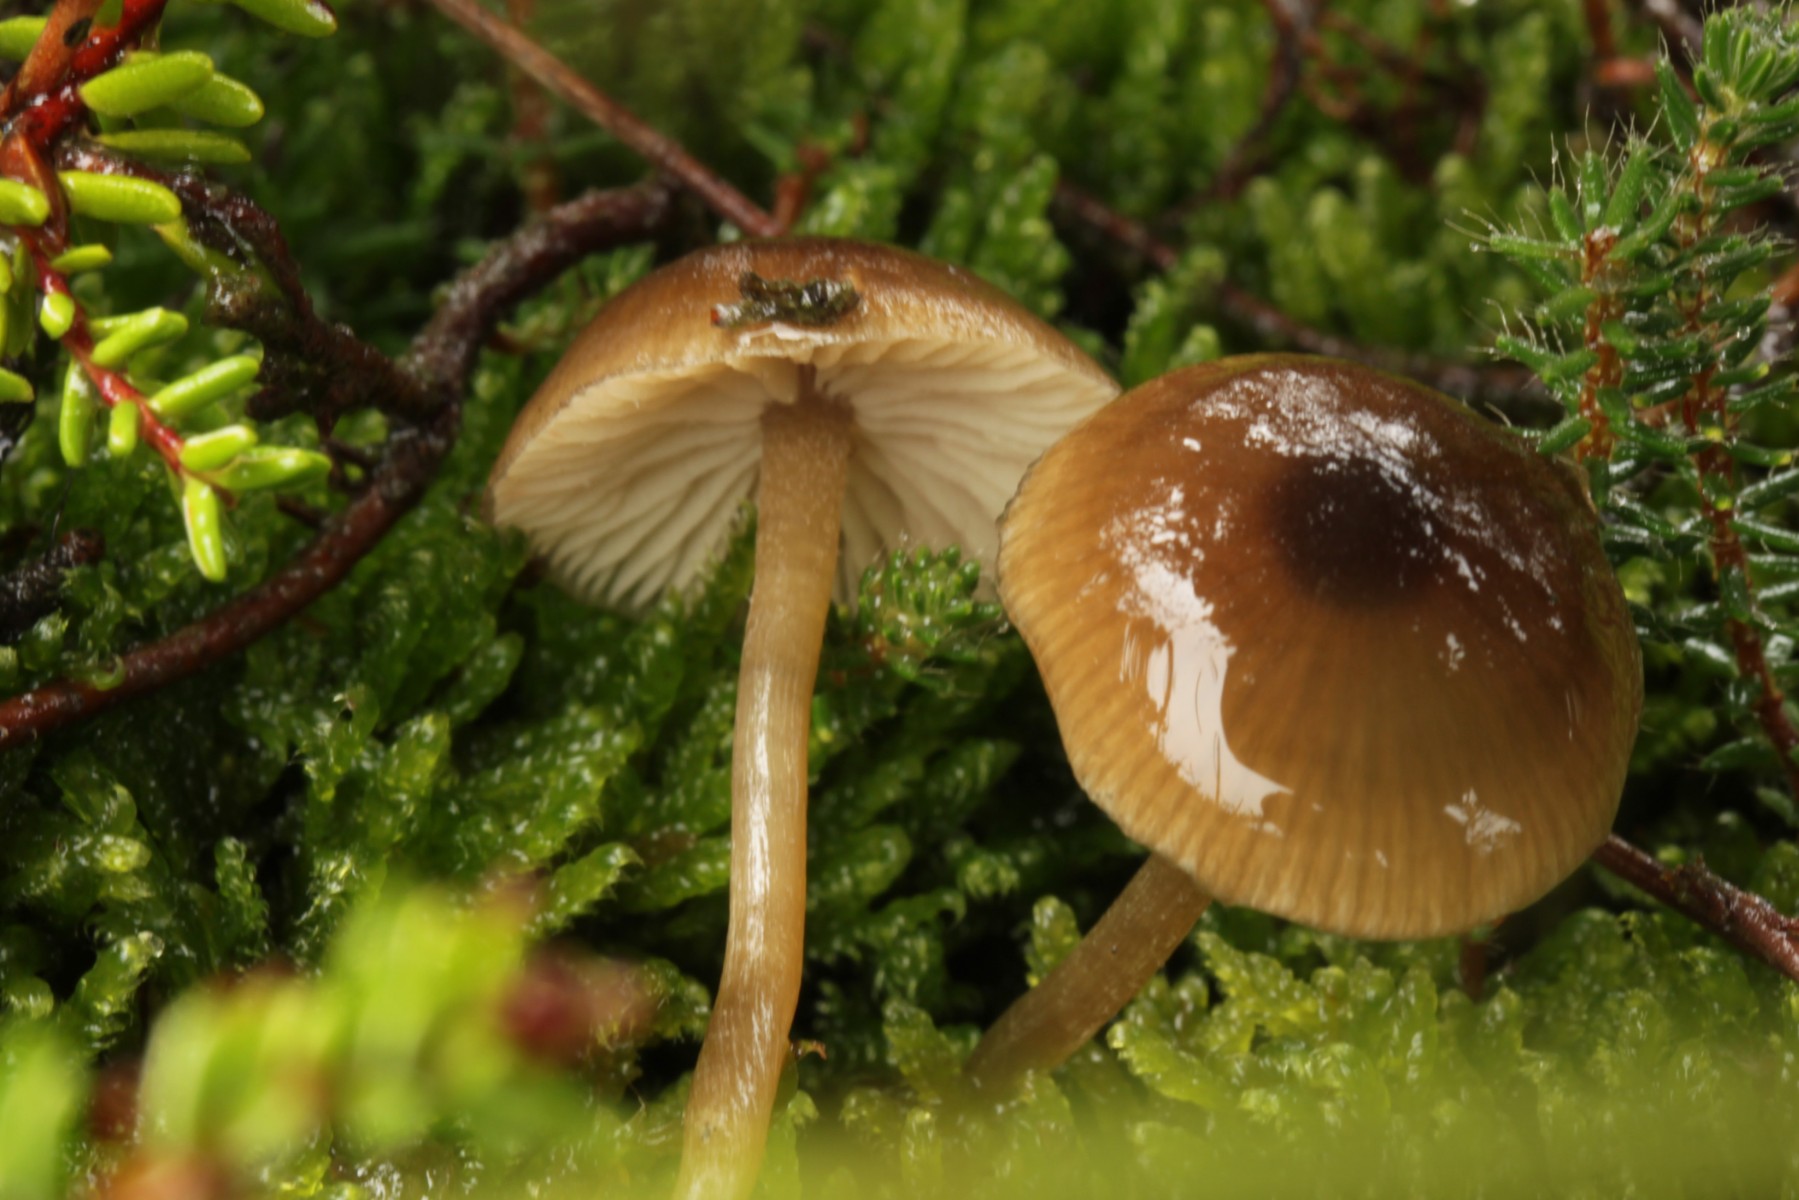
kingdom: Fungi
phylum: Basidiomycota
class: Agaricomycetes
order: Agaricales
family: Lyophyllaceae
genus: Sagaranella
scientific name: Sagaranella tylicolor
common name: kvælstof-gråblad
